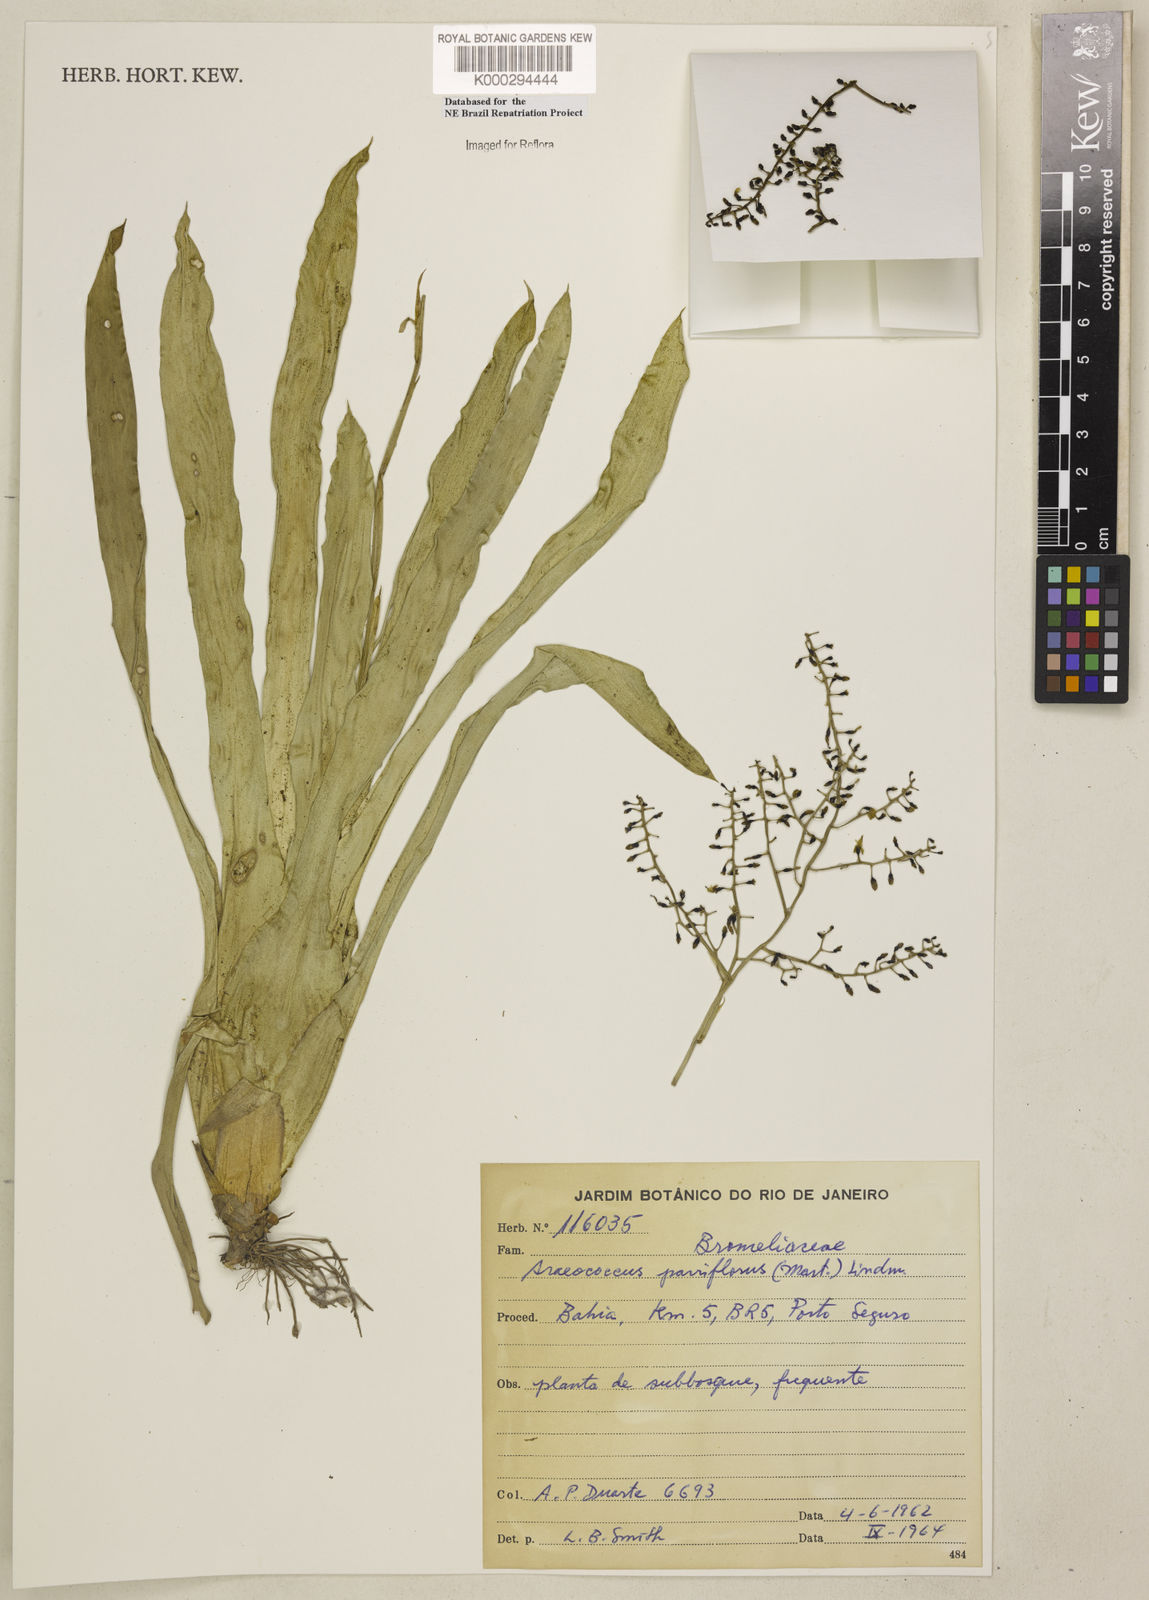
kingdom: Plantae
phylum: Tracheophyta
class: Liliopsida
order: Poales
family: Bromeliaceae
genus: Pseudaraeococcus
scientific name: Pseudaraeococcus parviflorus
